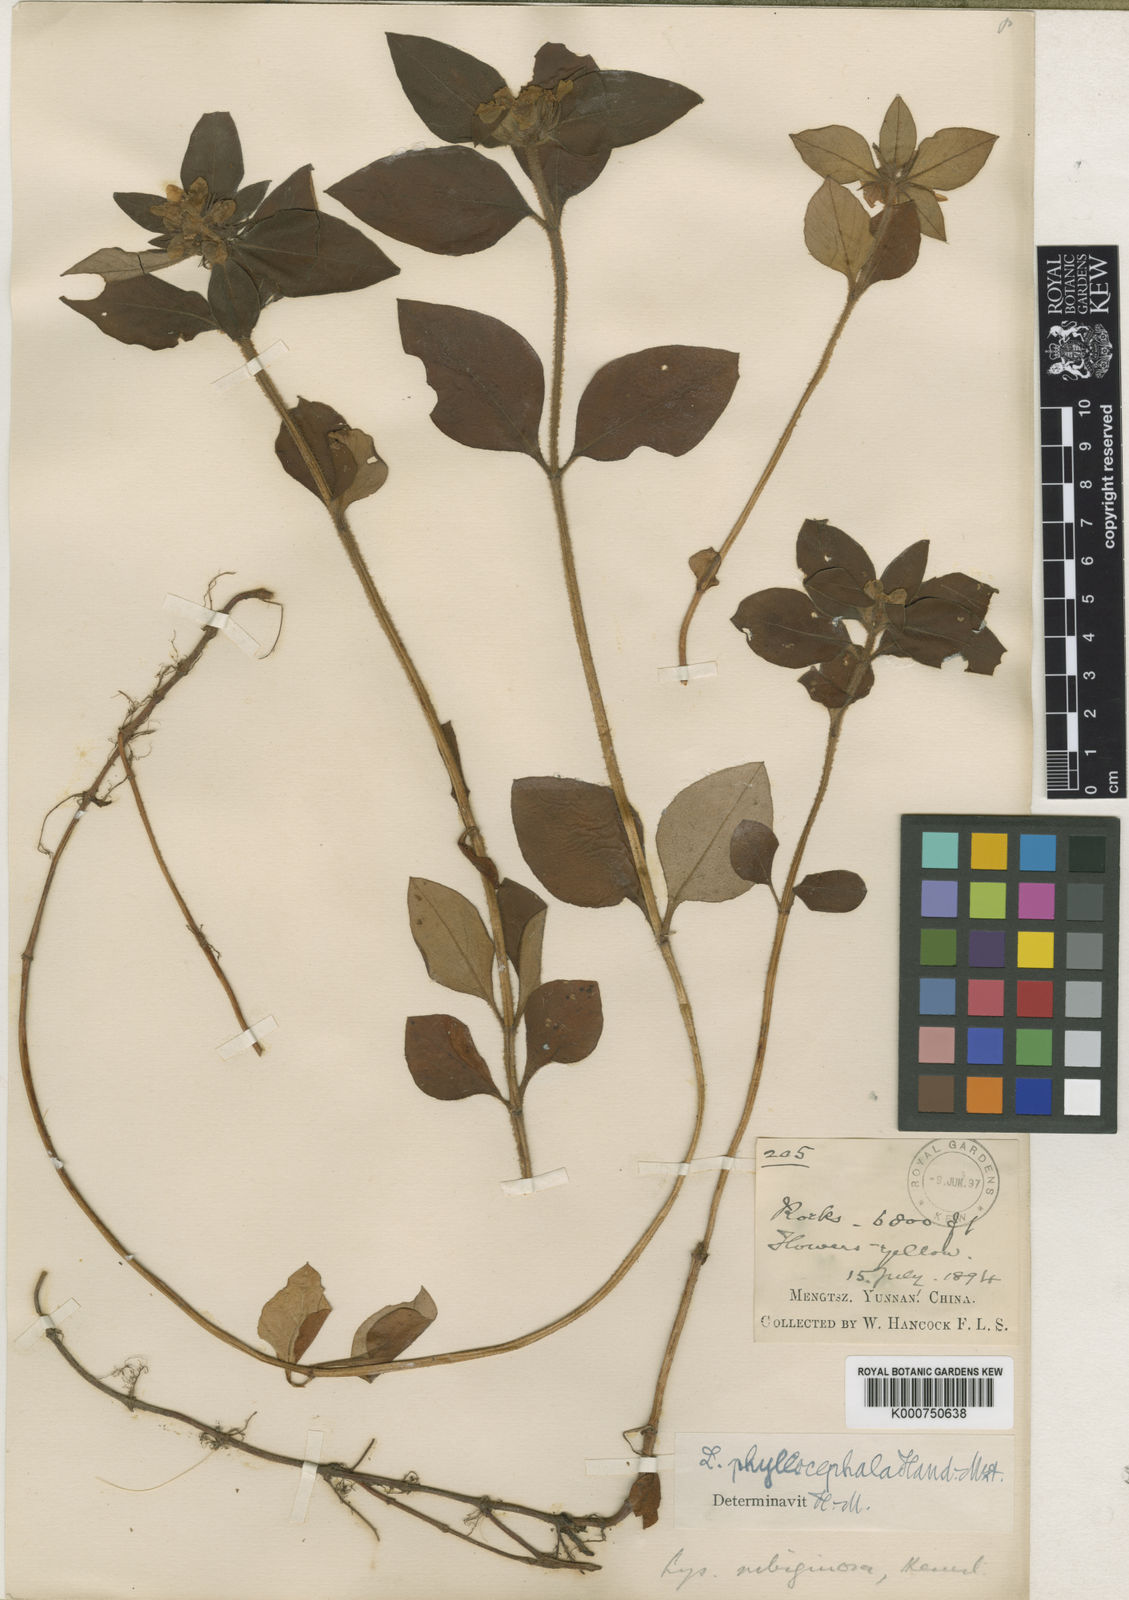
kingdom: Plantae
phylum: Tracheophyta
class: Magnoliopsida
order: Ericales
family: Primulaceae
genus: Lysimachia
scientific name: Lysimachia phyllocephala
